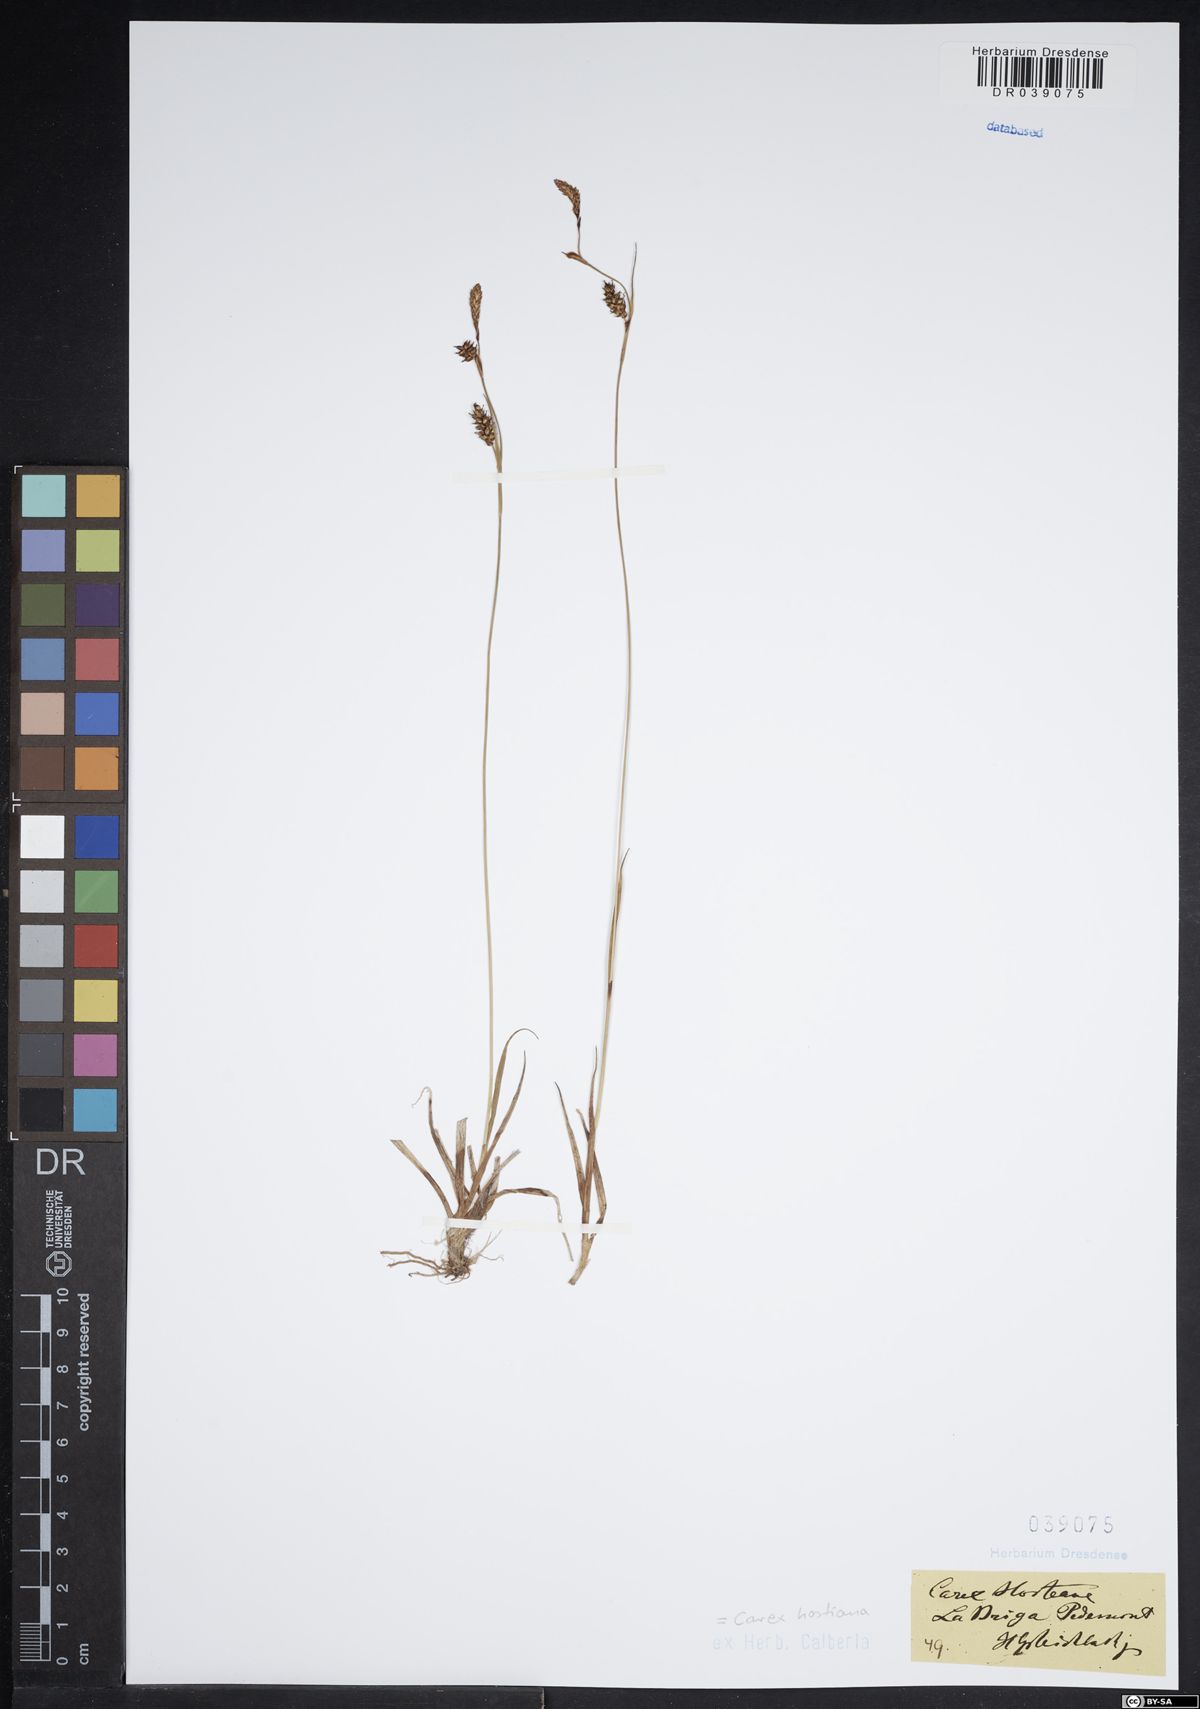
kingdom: Plantae
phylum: Tracheophyta
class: Liliopsida
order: Poales
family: Cyperaceae
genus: Carex
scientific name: Carex hostiana
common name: Tawny sedge
